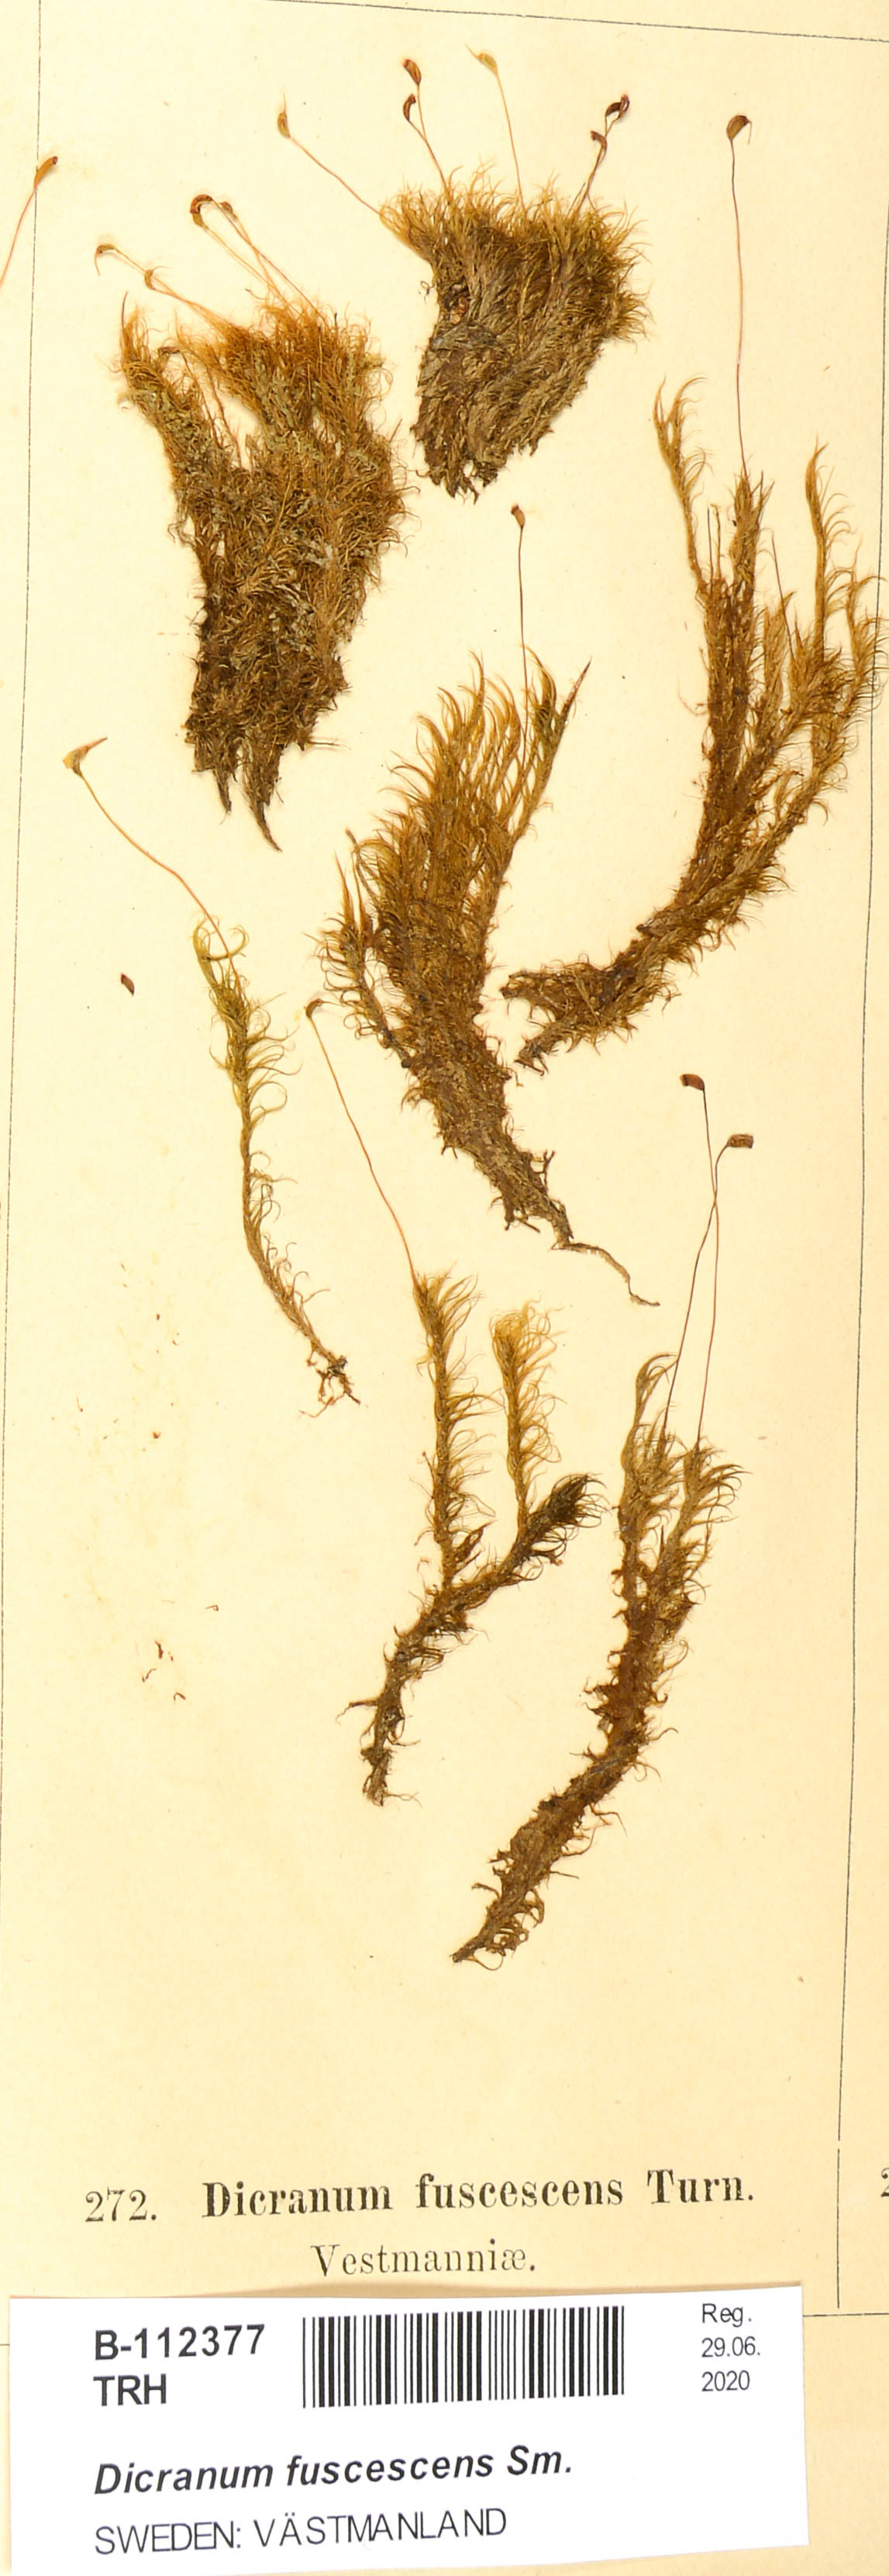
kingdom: Plantae
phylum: Bryophyta
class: Bryopsida
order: Dicranales
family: Dicranaceae
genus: Dicranum
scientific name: Dicranum fuscescens
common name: Curly heron's-bill moss
